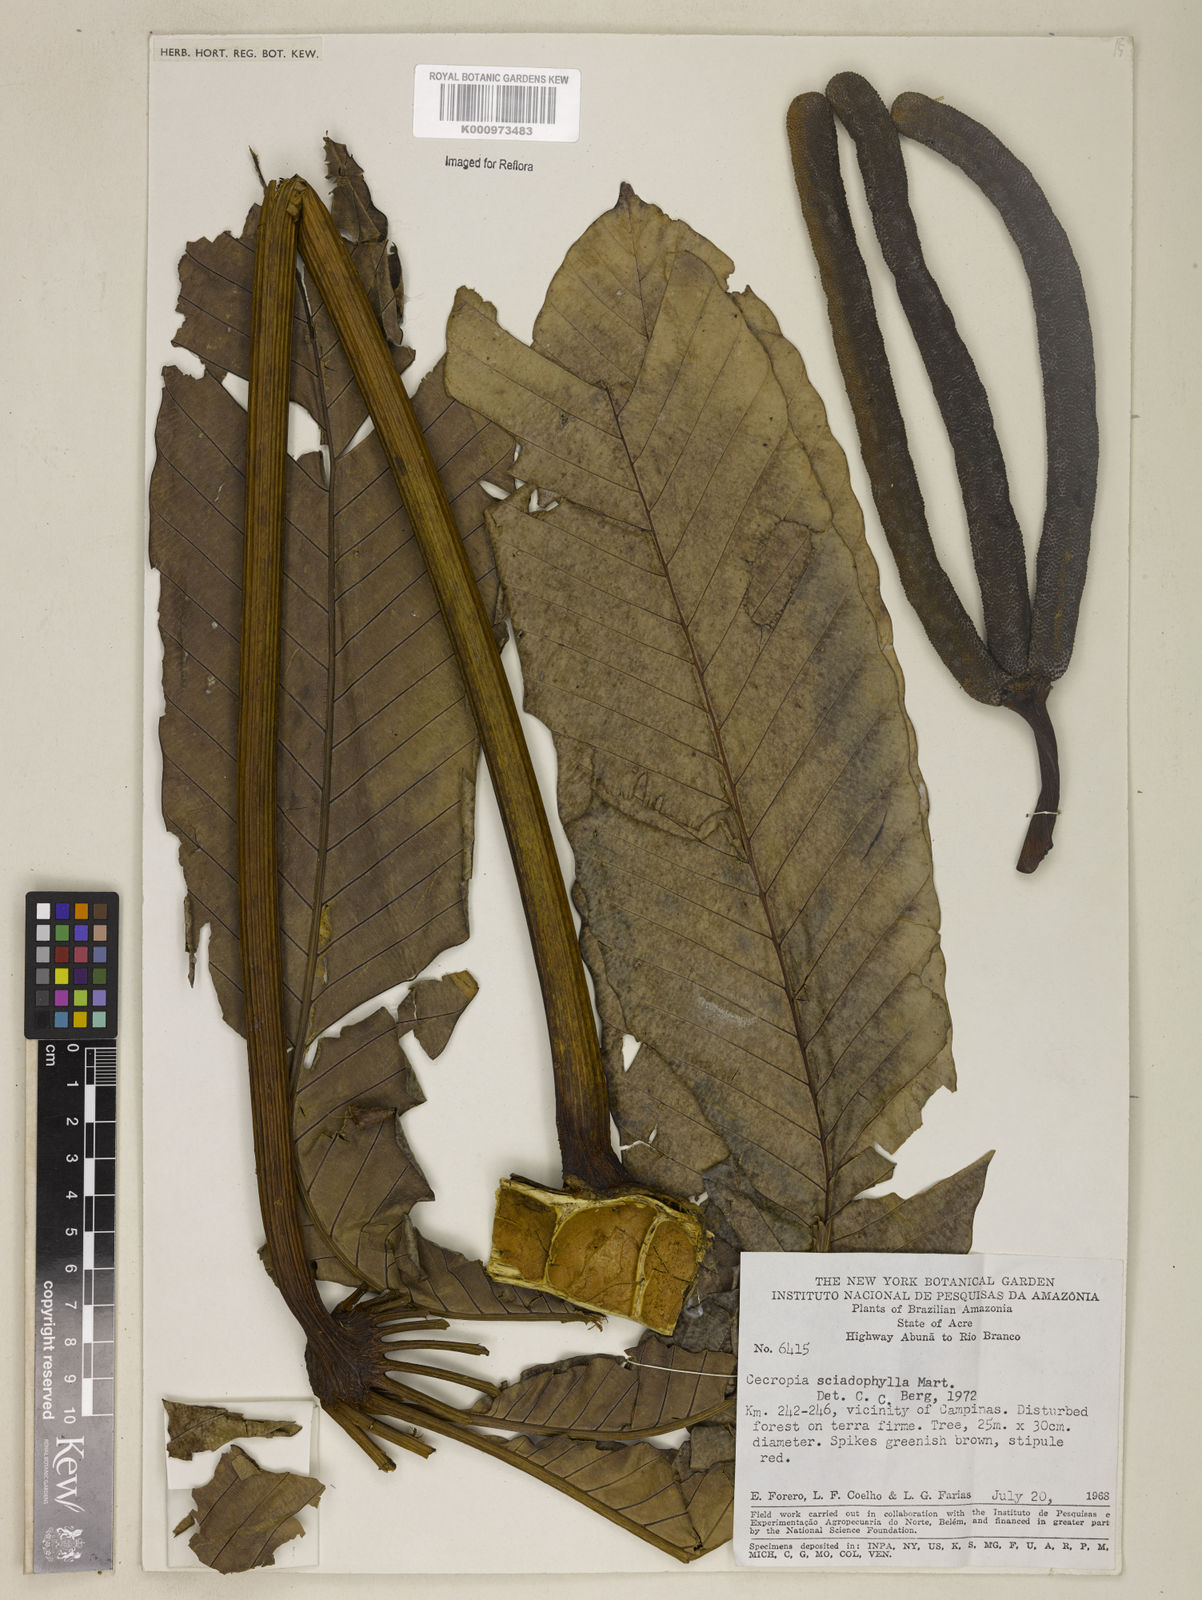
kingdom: Plantae
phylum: Tracheophyta
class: Magnoliopsida
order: Rosales
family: Urticaceae
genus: Cecropia
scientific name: Cecropia sciadophylla
